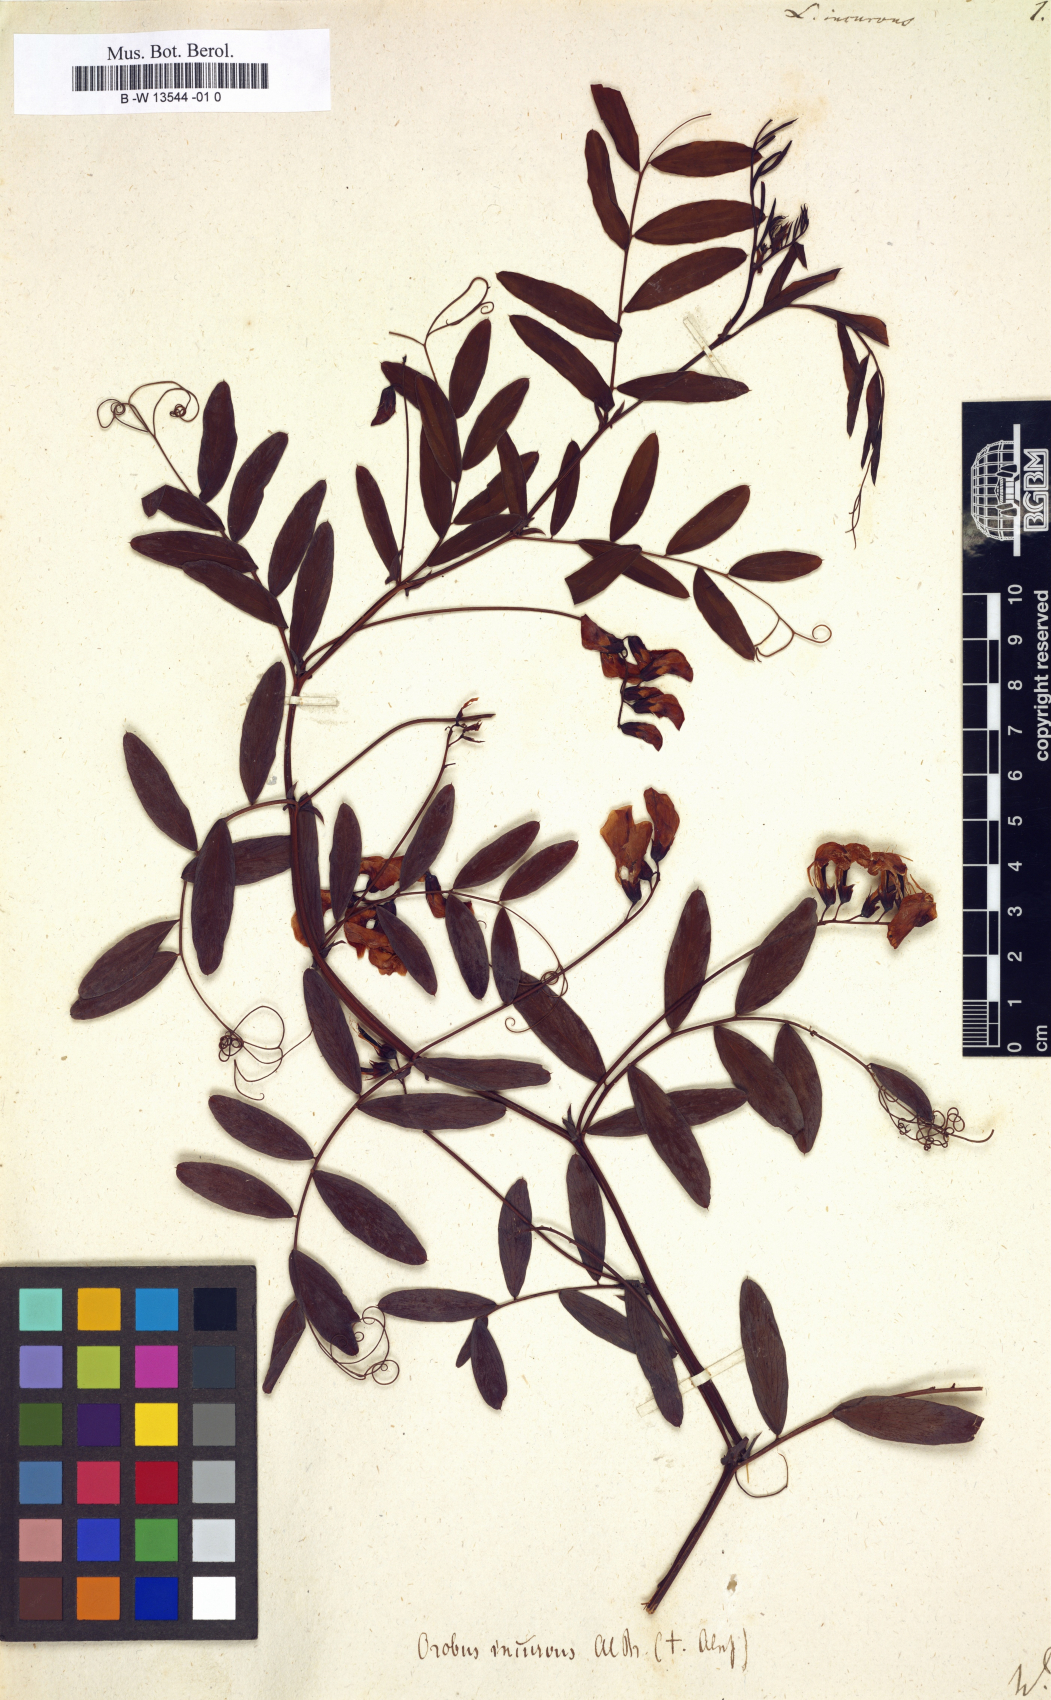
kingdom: Plantae
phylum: Tracheophyta
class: Magnoliopsida
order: Fabales
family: Fabaceae
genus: Lathyrus
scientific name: Lathyrus incurvus
